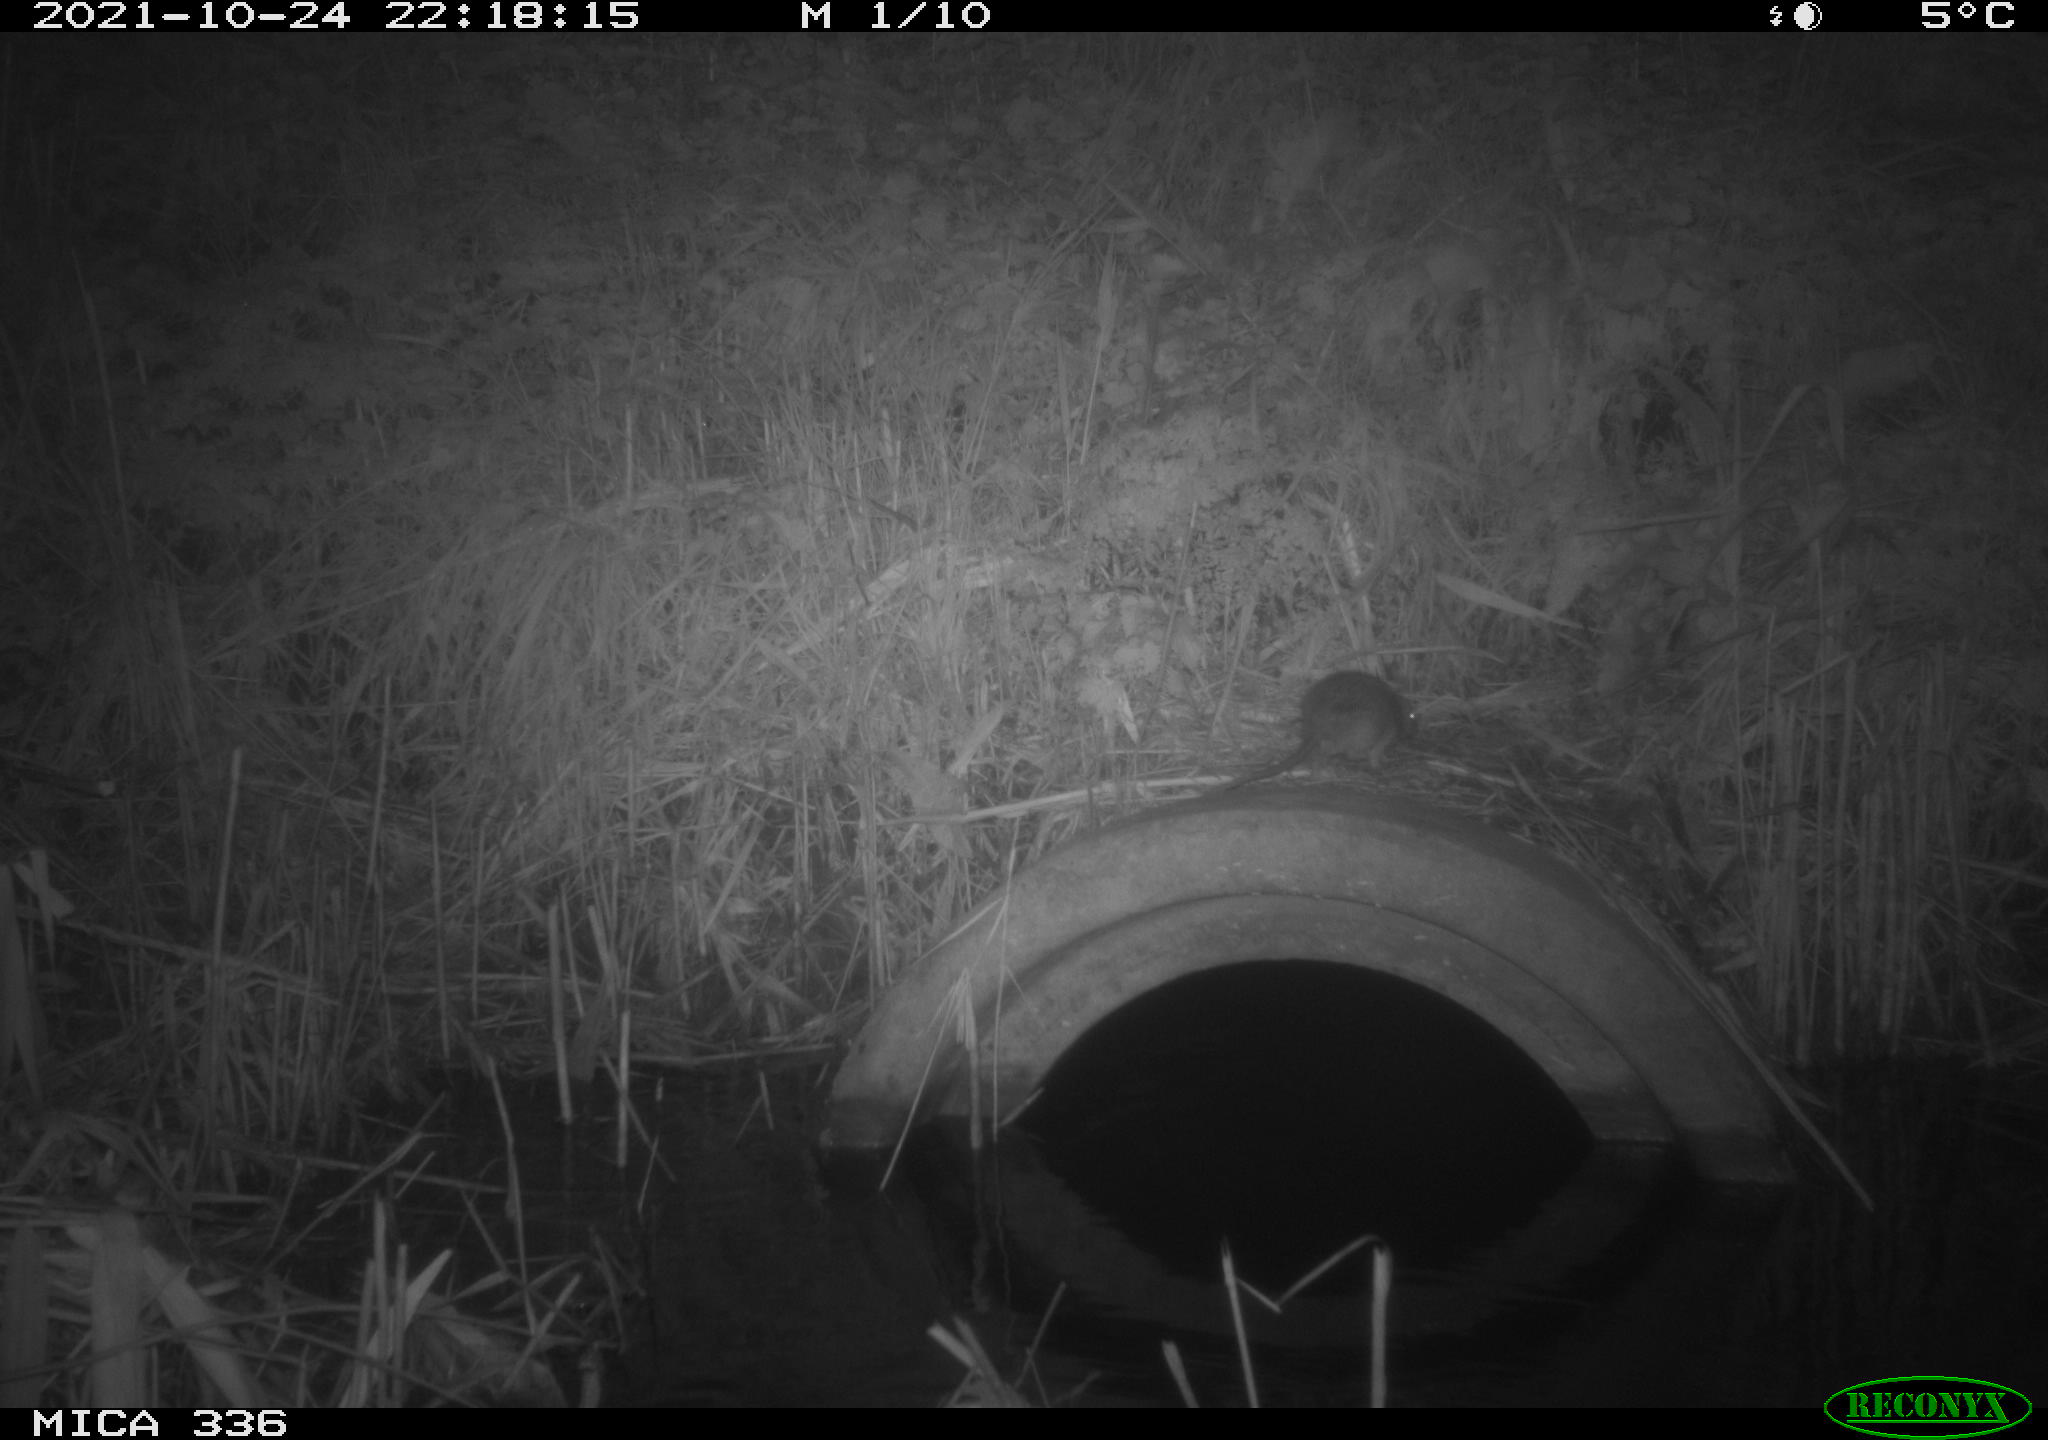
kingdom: Animalia
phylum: Chordata
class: Mammalia
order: Rodentia
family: Muridae
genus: Rattus
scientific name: Rattus norvegicus
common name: Brown rat
